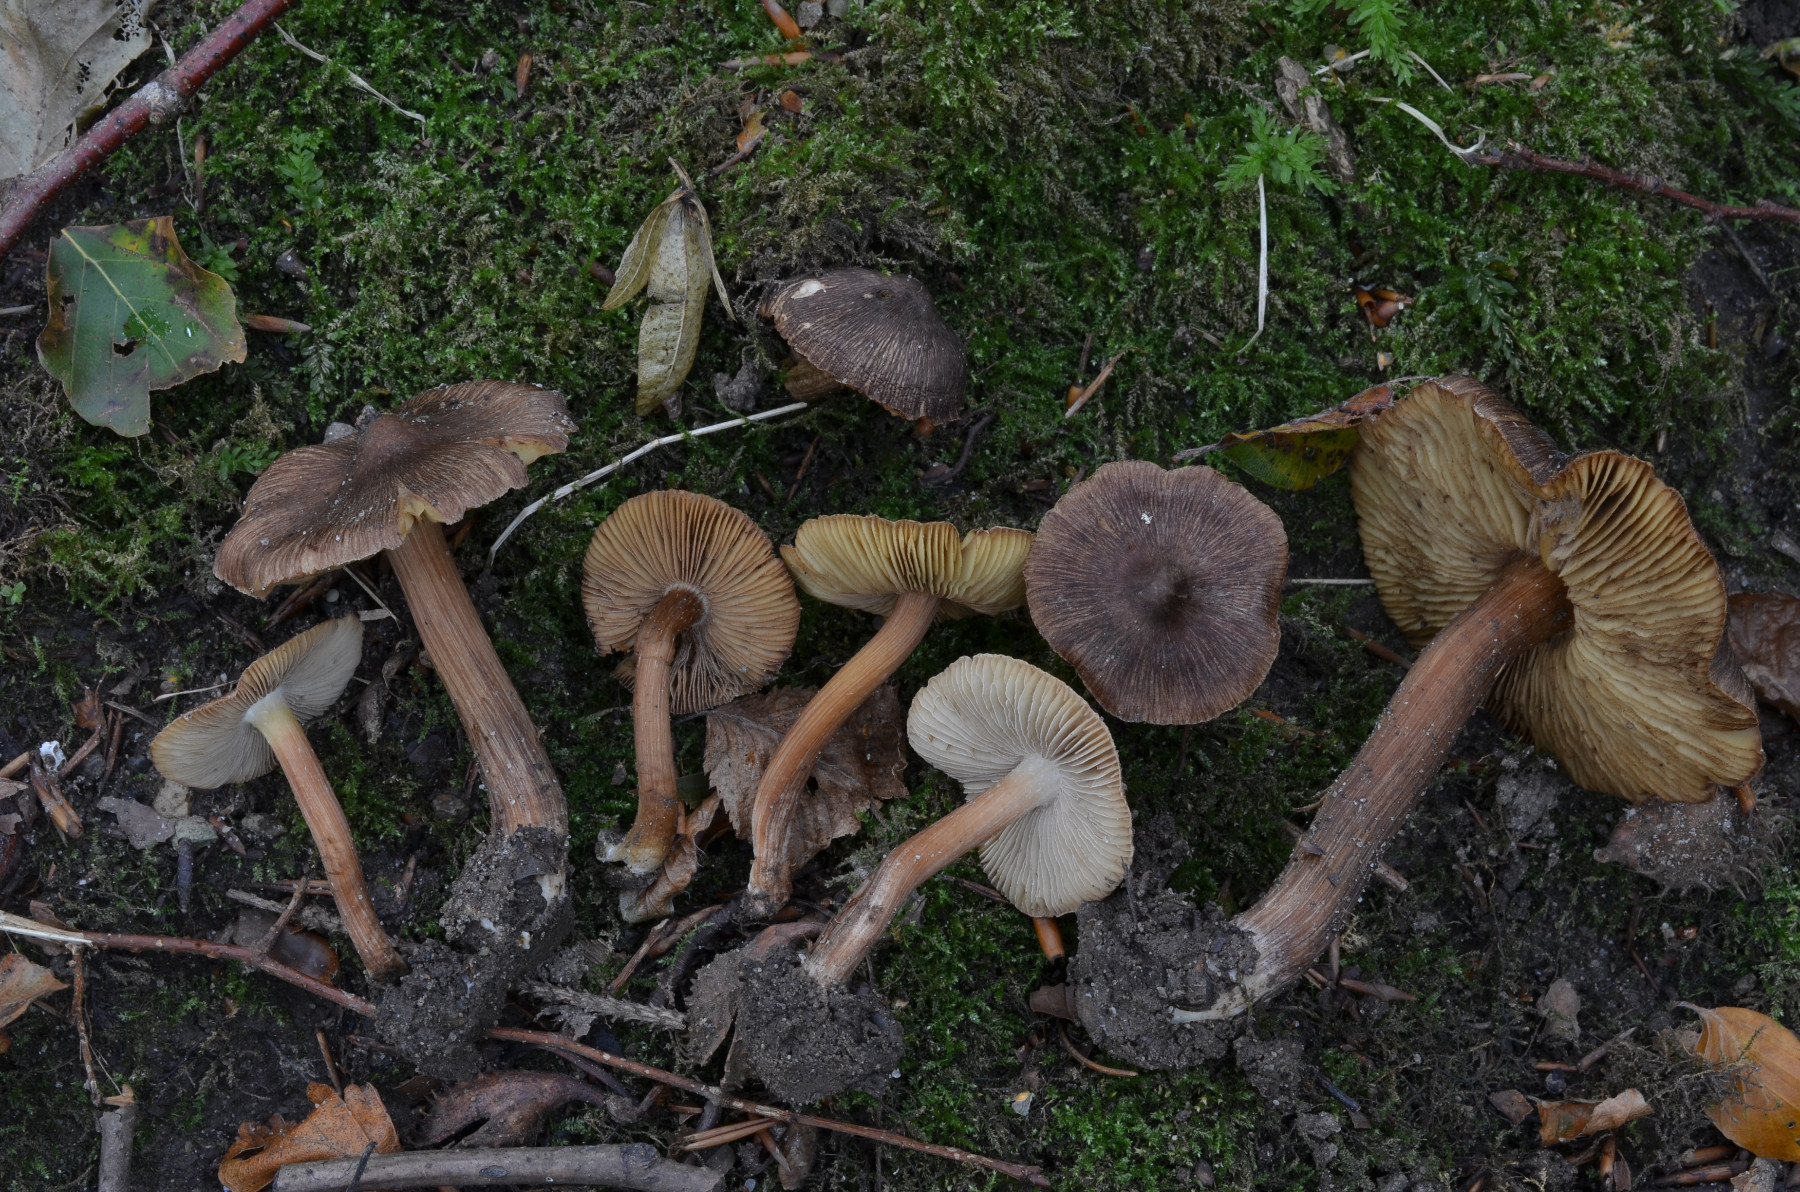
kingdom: Fungi
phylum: Basidiomycota
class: Agaricomycetes
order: Agaricales
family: Inocybaceae
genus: Inosperma
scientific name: Inosperma maculatum
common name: plettet trævlhat
